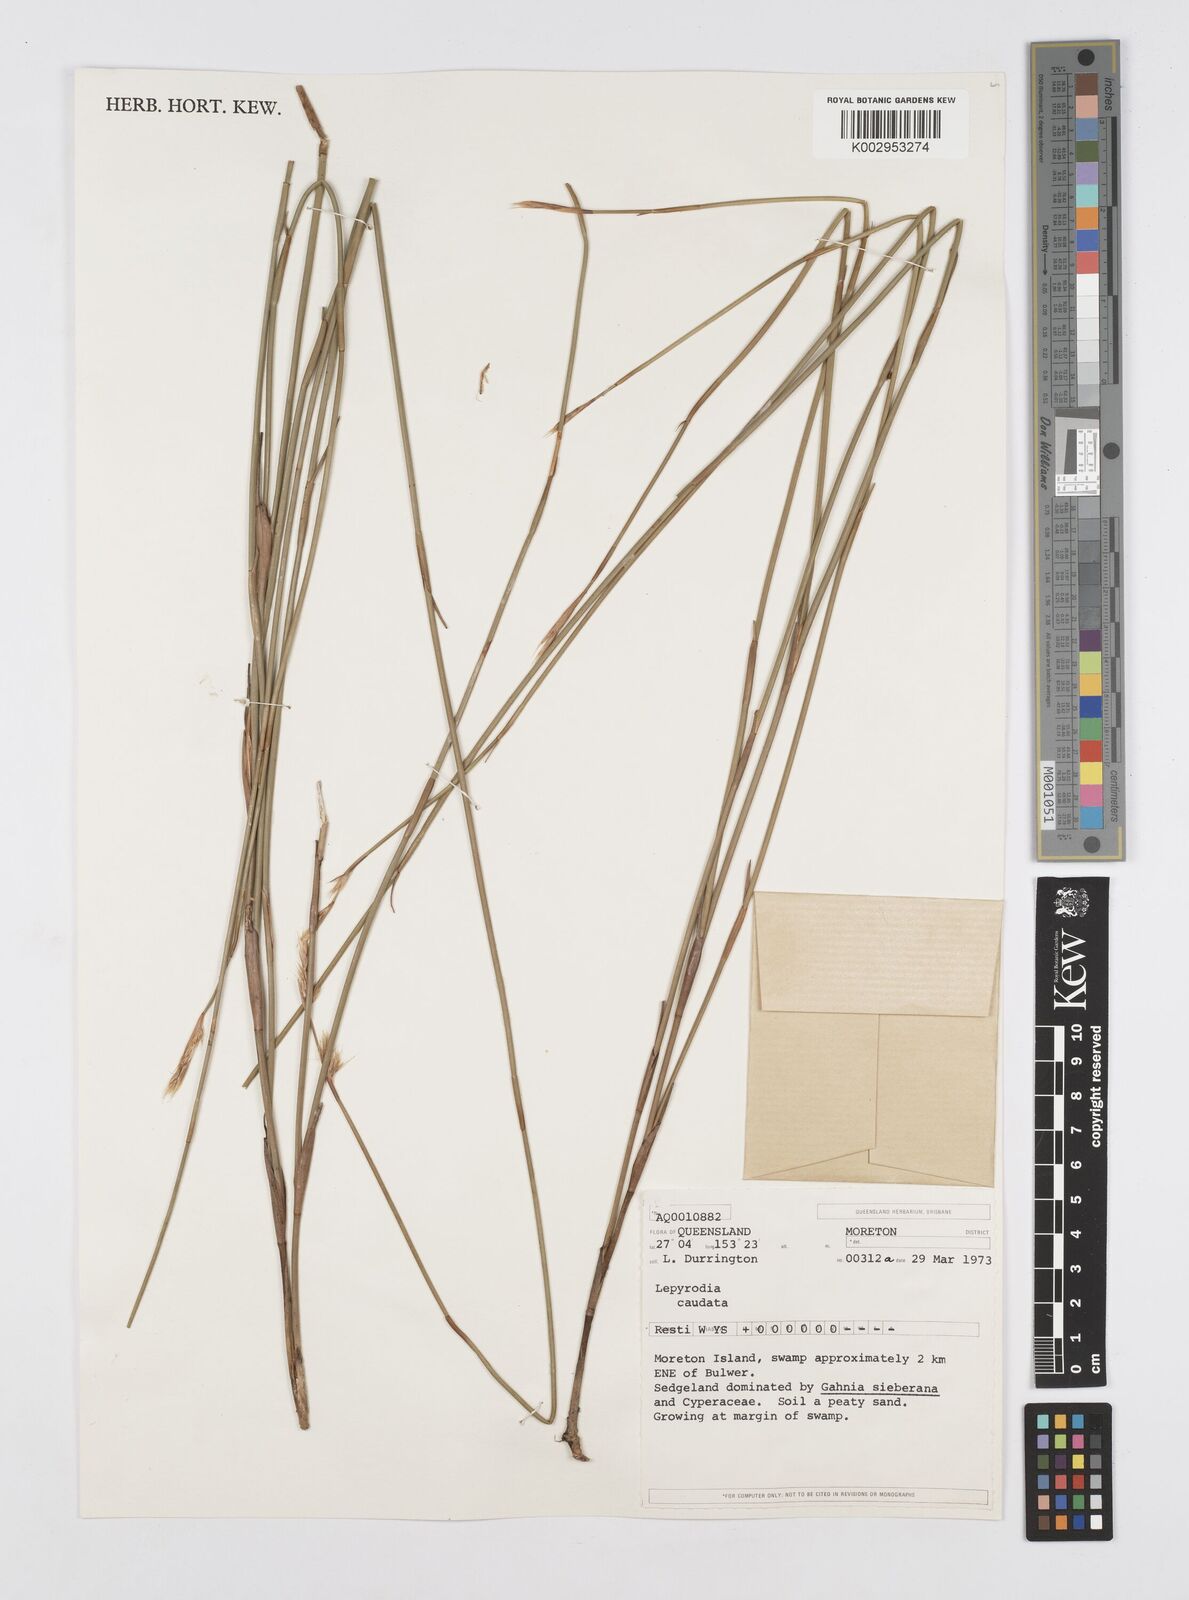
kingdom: Plantae
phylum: Tracheophyta
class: Liliopsida
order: Poales
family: Restionaceae
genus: Sporadanthus
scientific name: Sporadanthus caudatus
